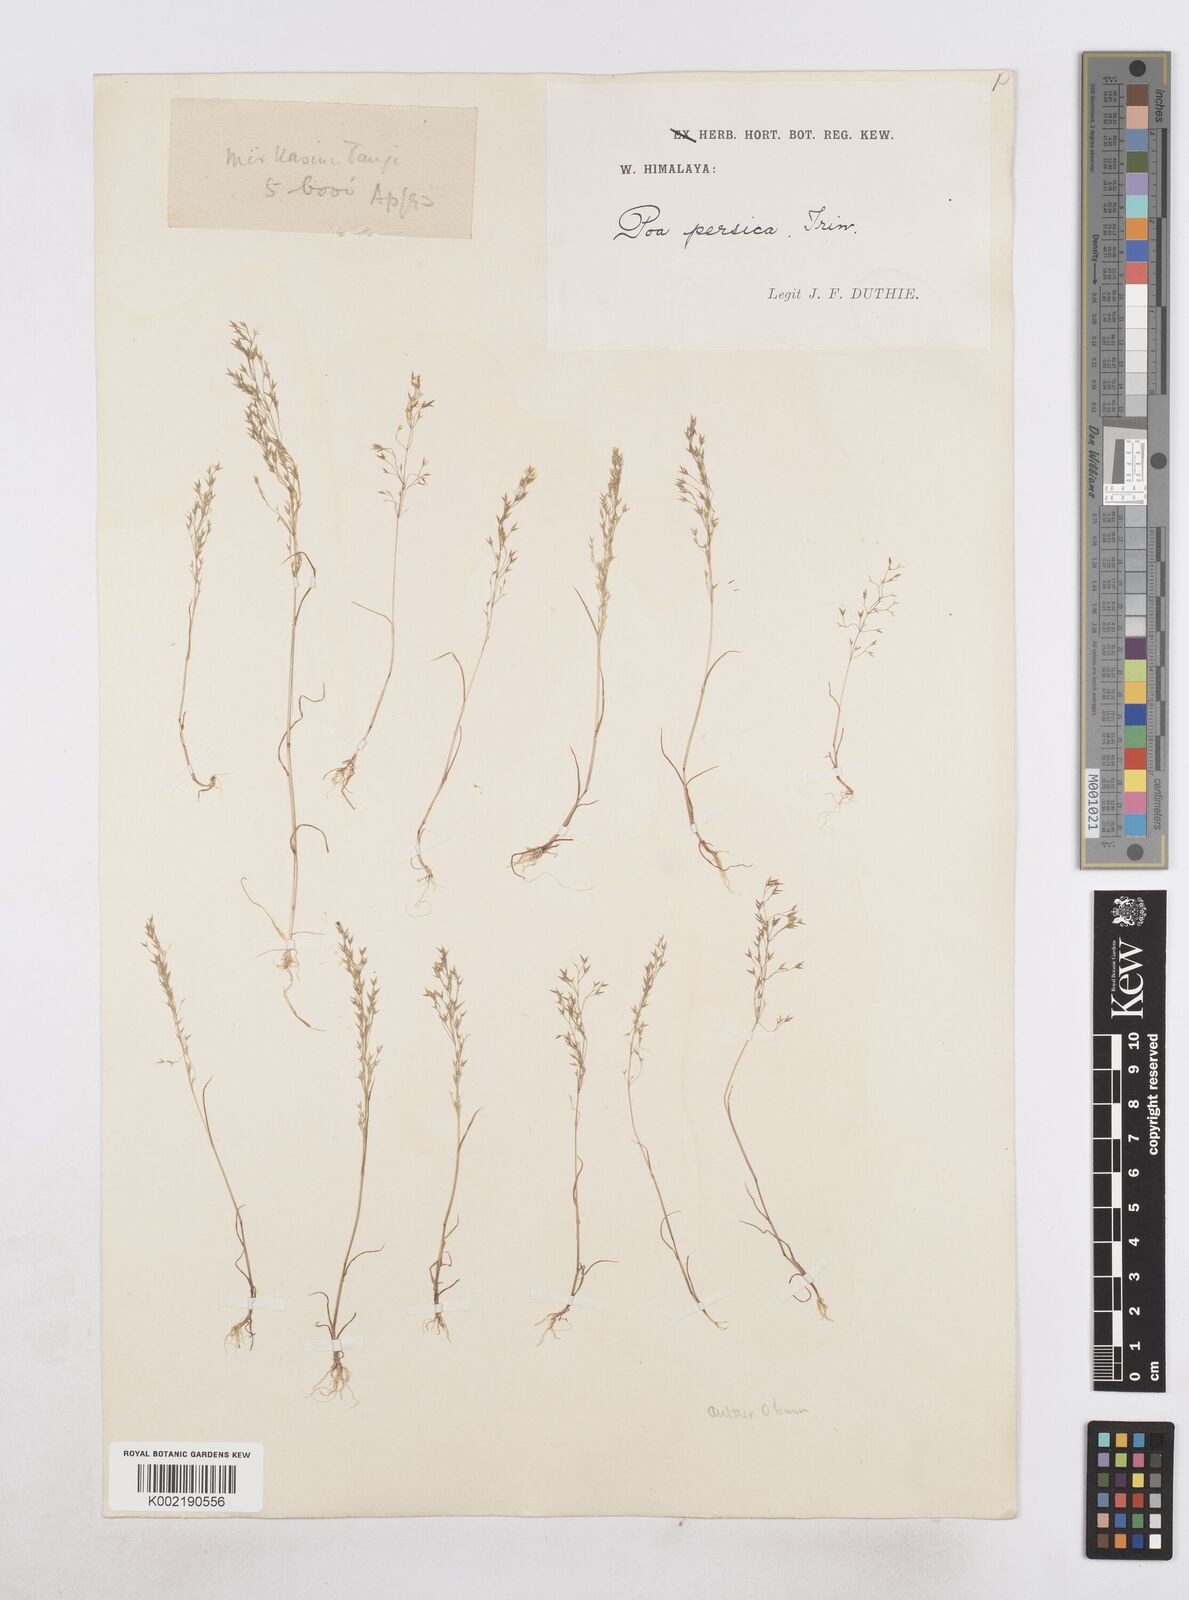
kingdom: Plantae
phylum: Tracheophyta
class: Liliopsida
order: Poales
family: Poaceae
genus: Poa
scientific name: Poa diaphora
